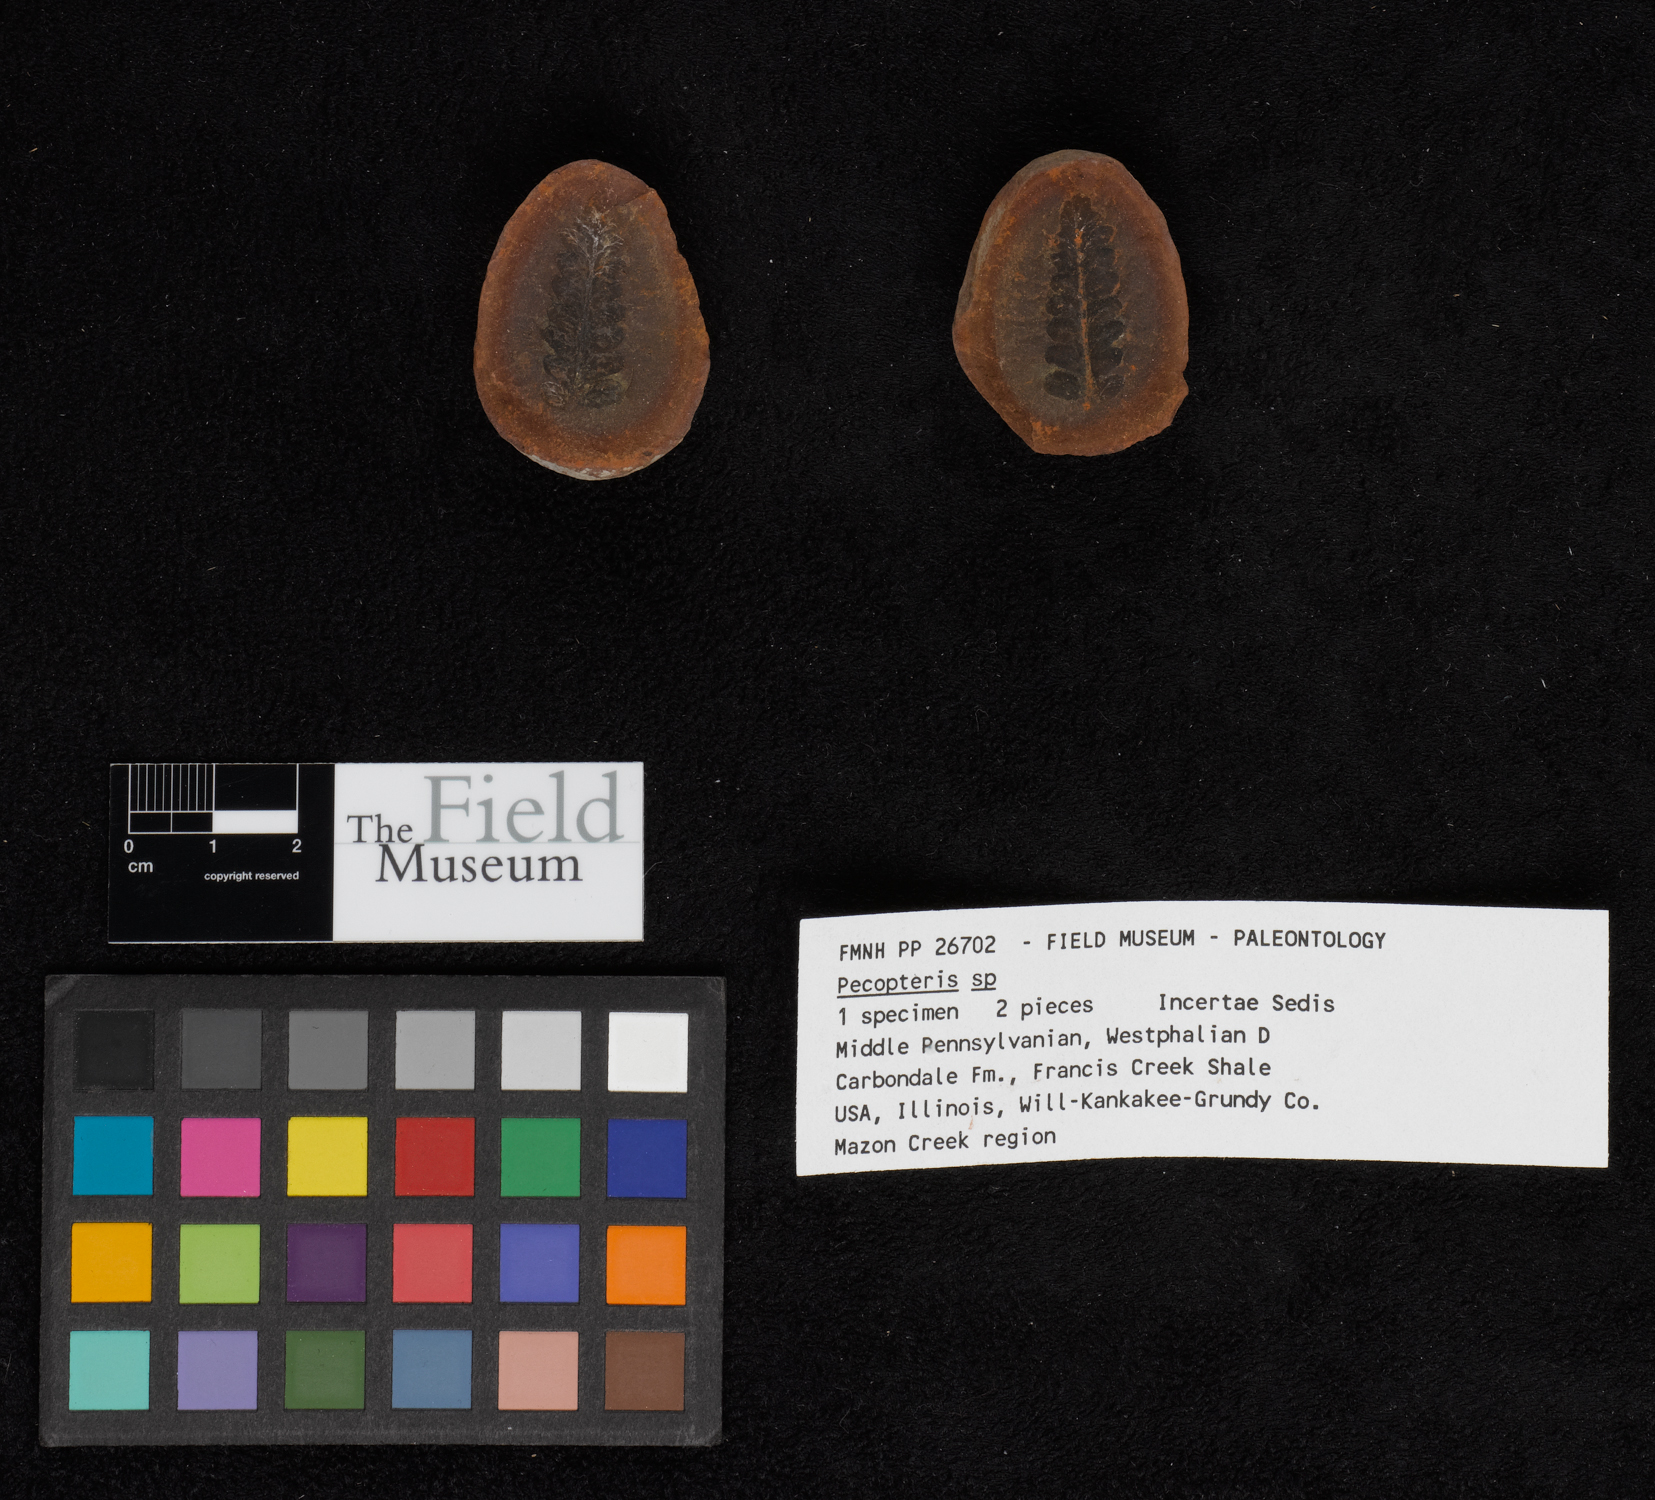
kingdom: Plantae
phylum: Tracheophyta
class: Polypodiopsida
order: Marattiales
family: Asterothecaceae
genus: Pecopteris
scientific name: Pecopteris
